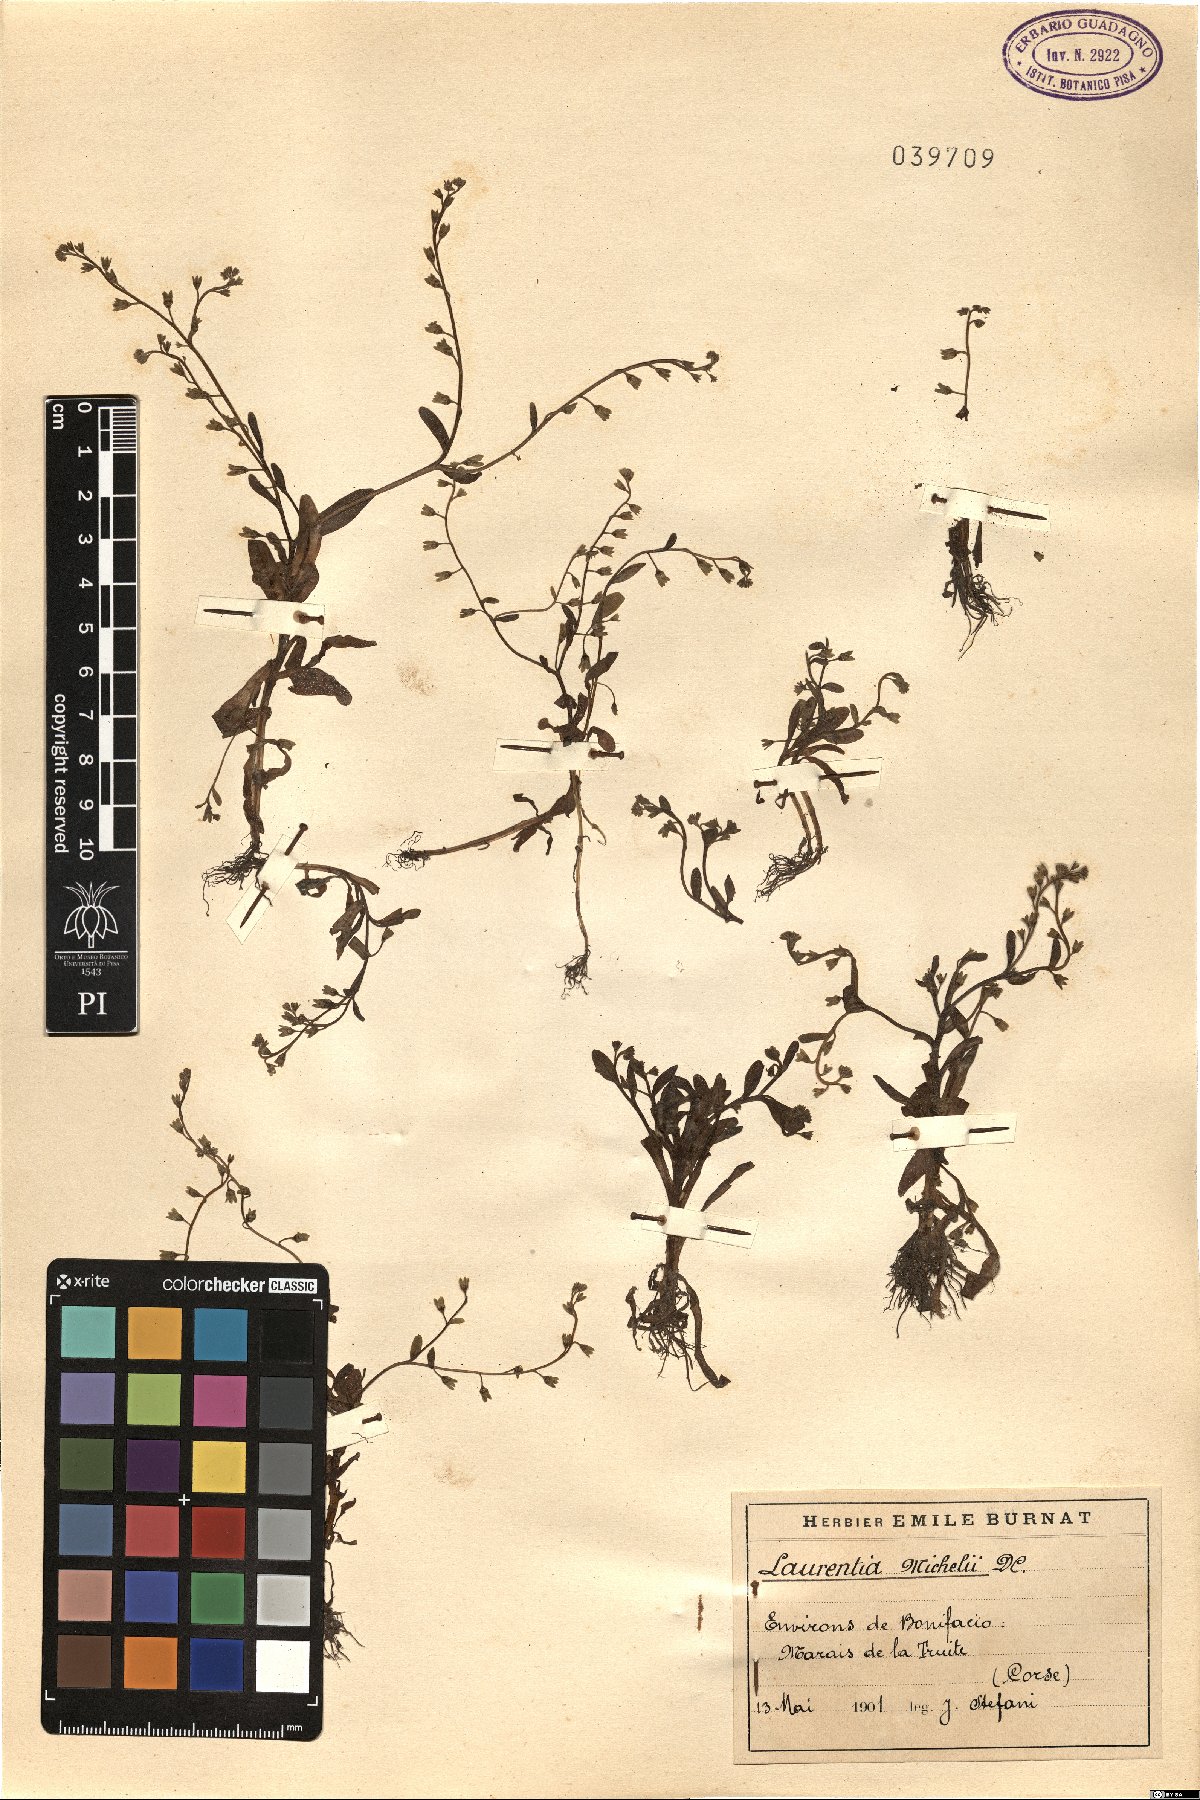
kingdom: Plantae
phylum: Tracheophyta
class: Magnoliopsida
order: Asterales
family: Campanulaceae
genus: Solenopsis
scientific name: Solenopsis laurentia
